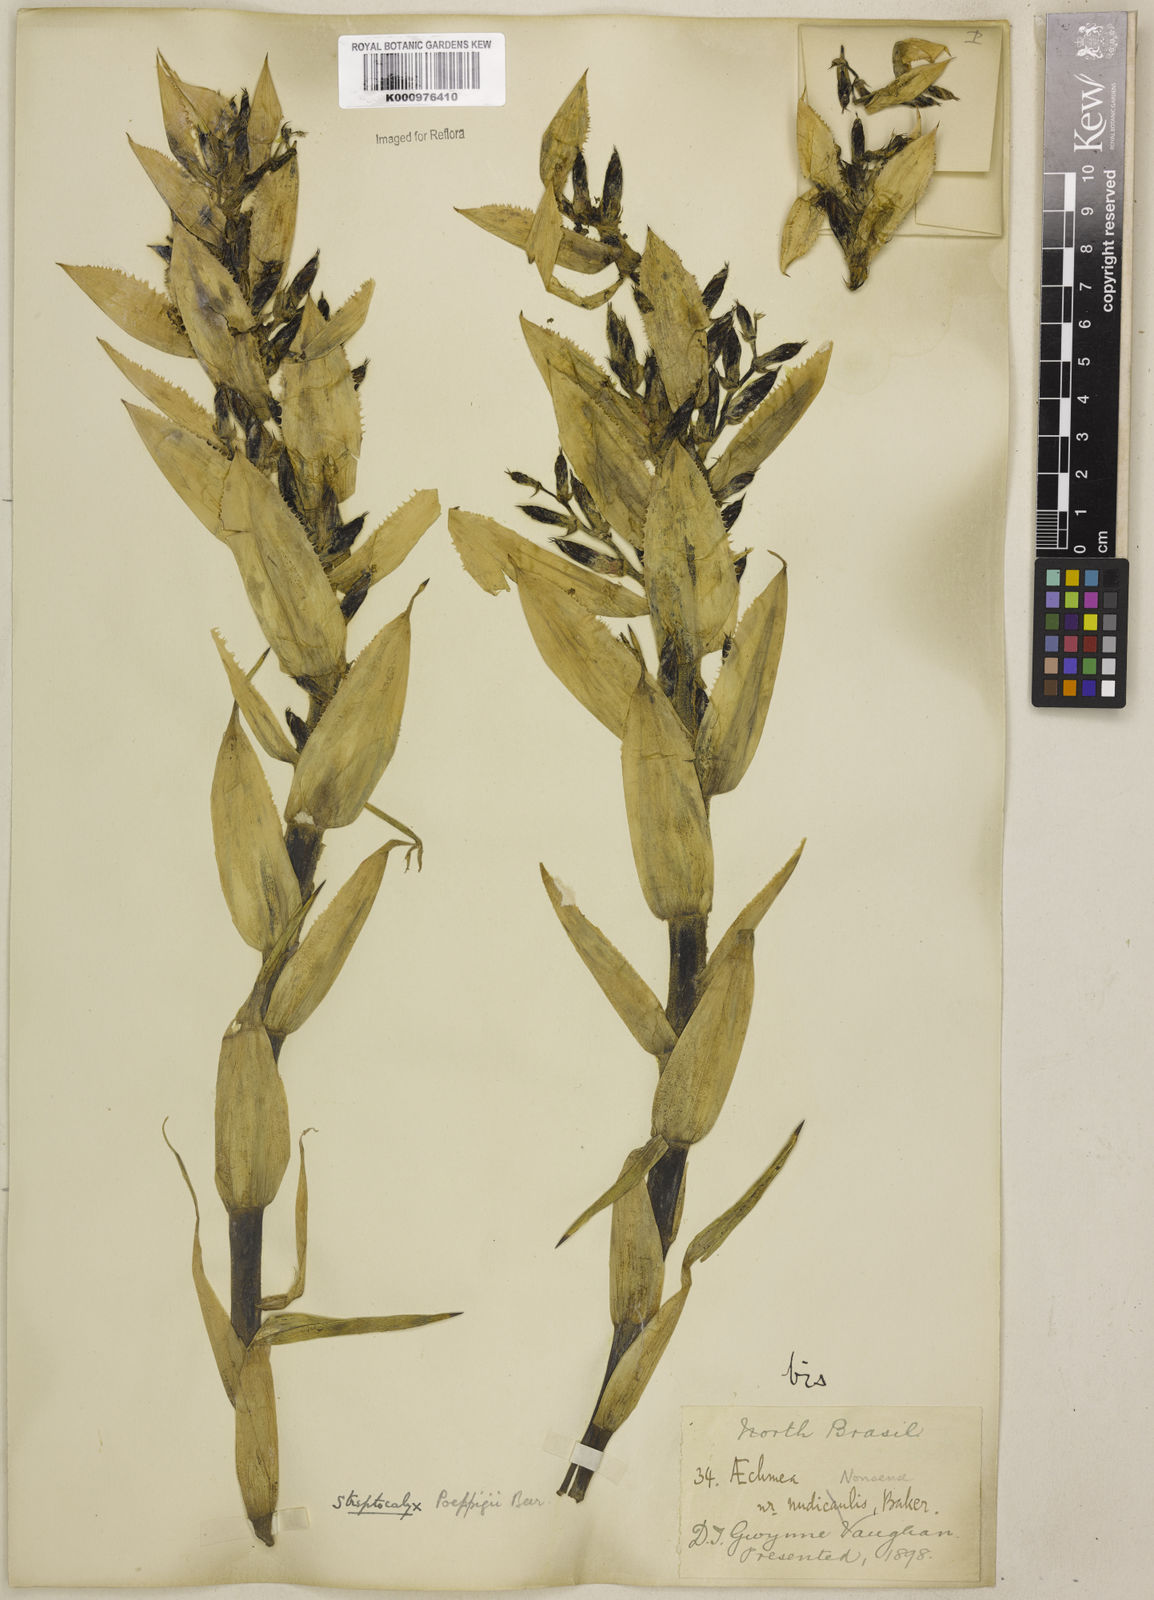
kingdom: Plantae
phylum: Tracheophyta
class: Liliopsida
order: Poales
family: Bromeliaceae
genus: Aechmea
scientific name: Aechmea vallerandii
